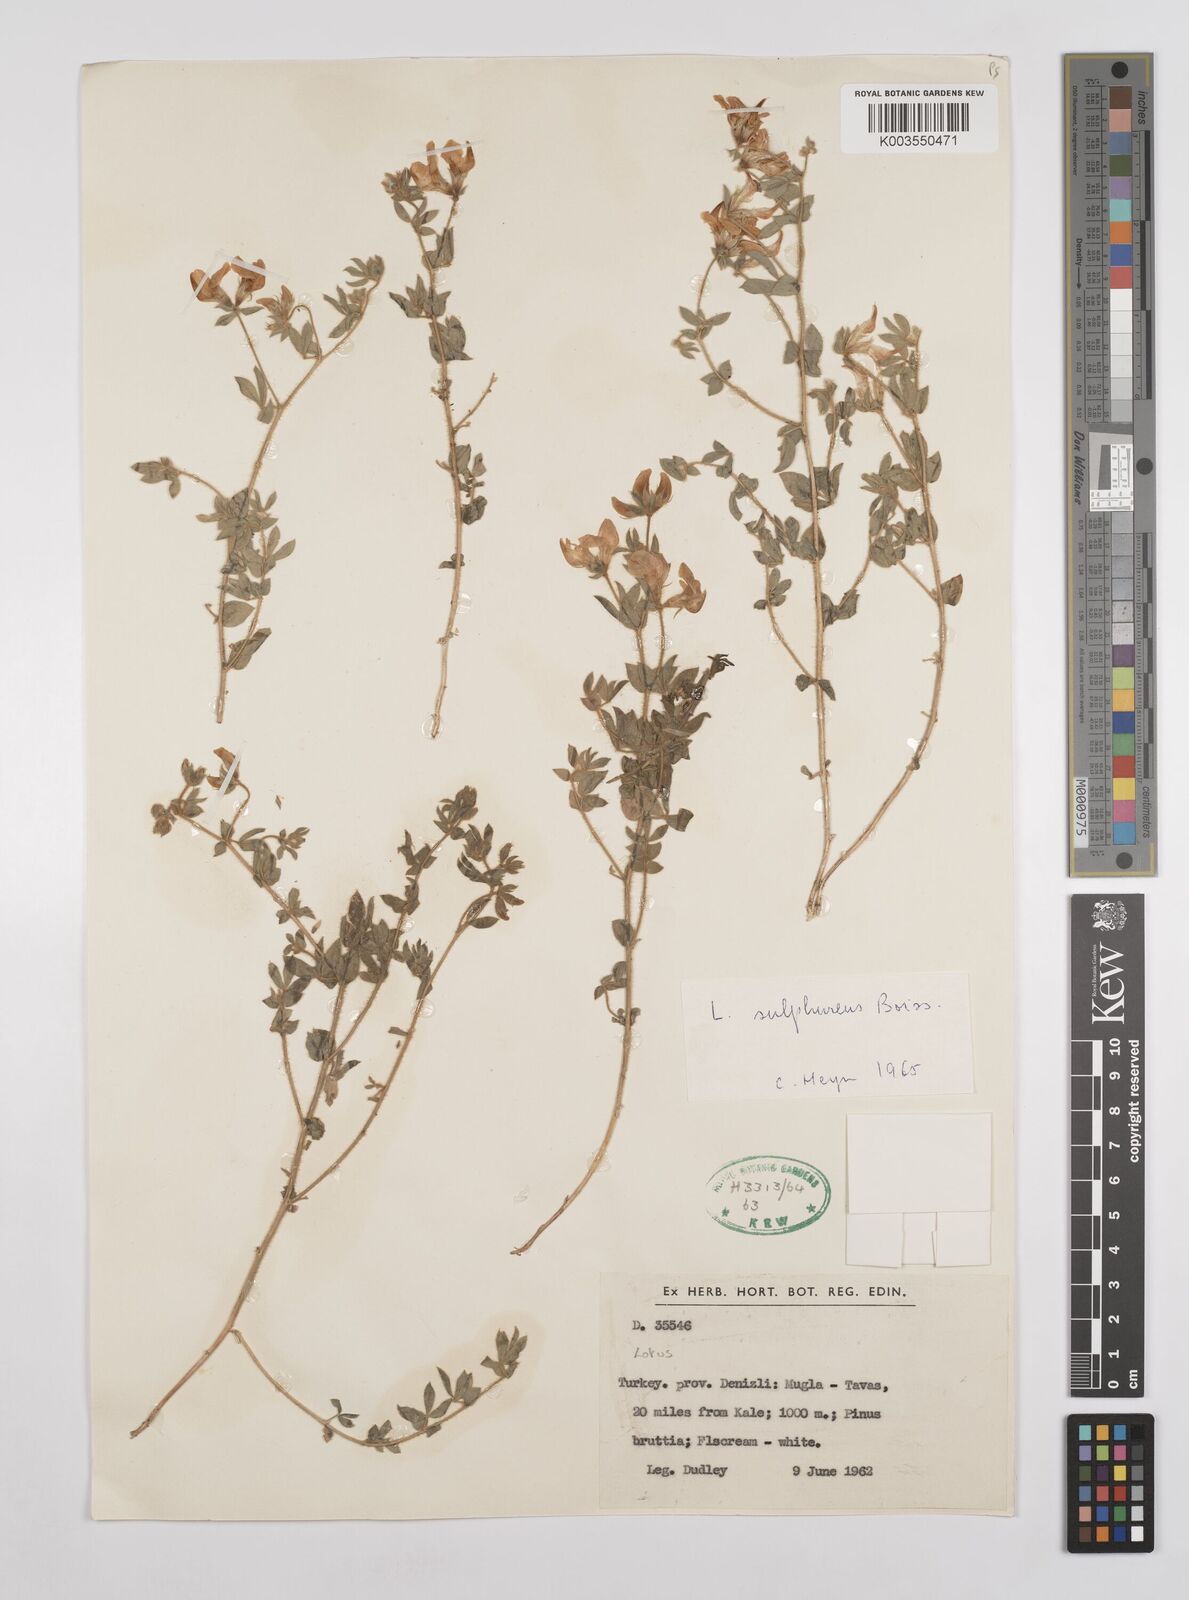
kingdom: Plantae
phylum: Tracheophyta
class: Magnoliopsida
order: Fabales
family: Fabaceae
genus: Lotus
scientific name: Lotus aegaeus
